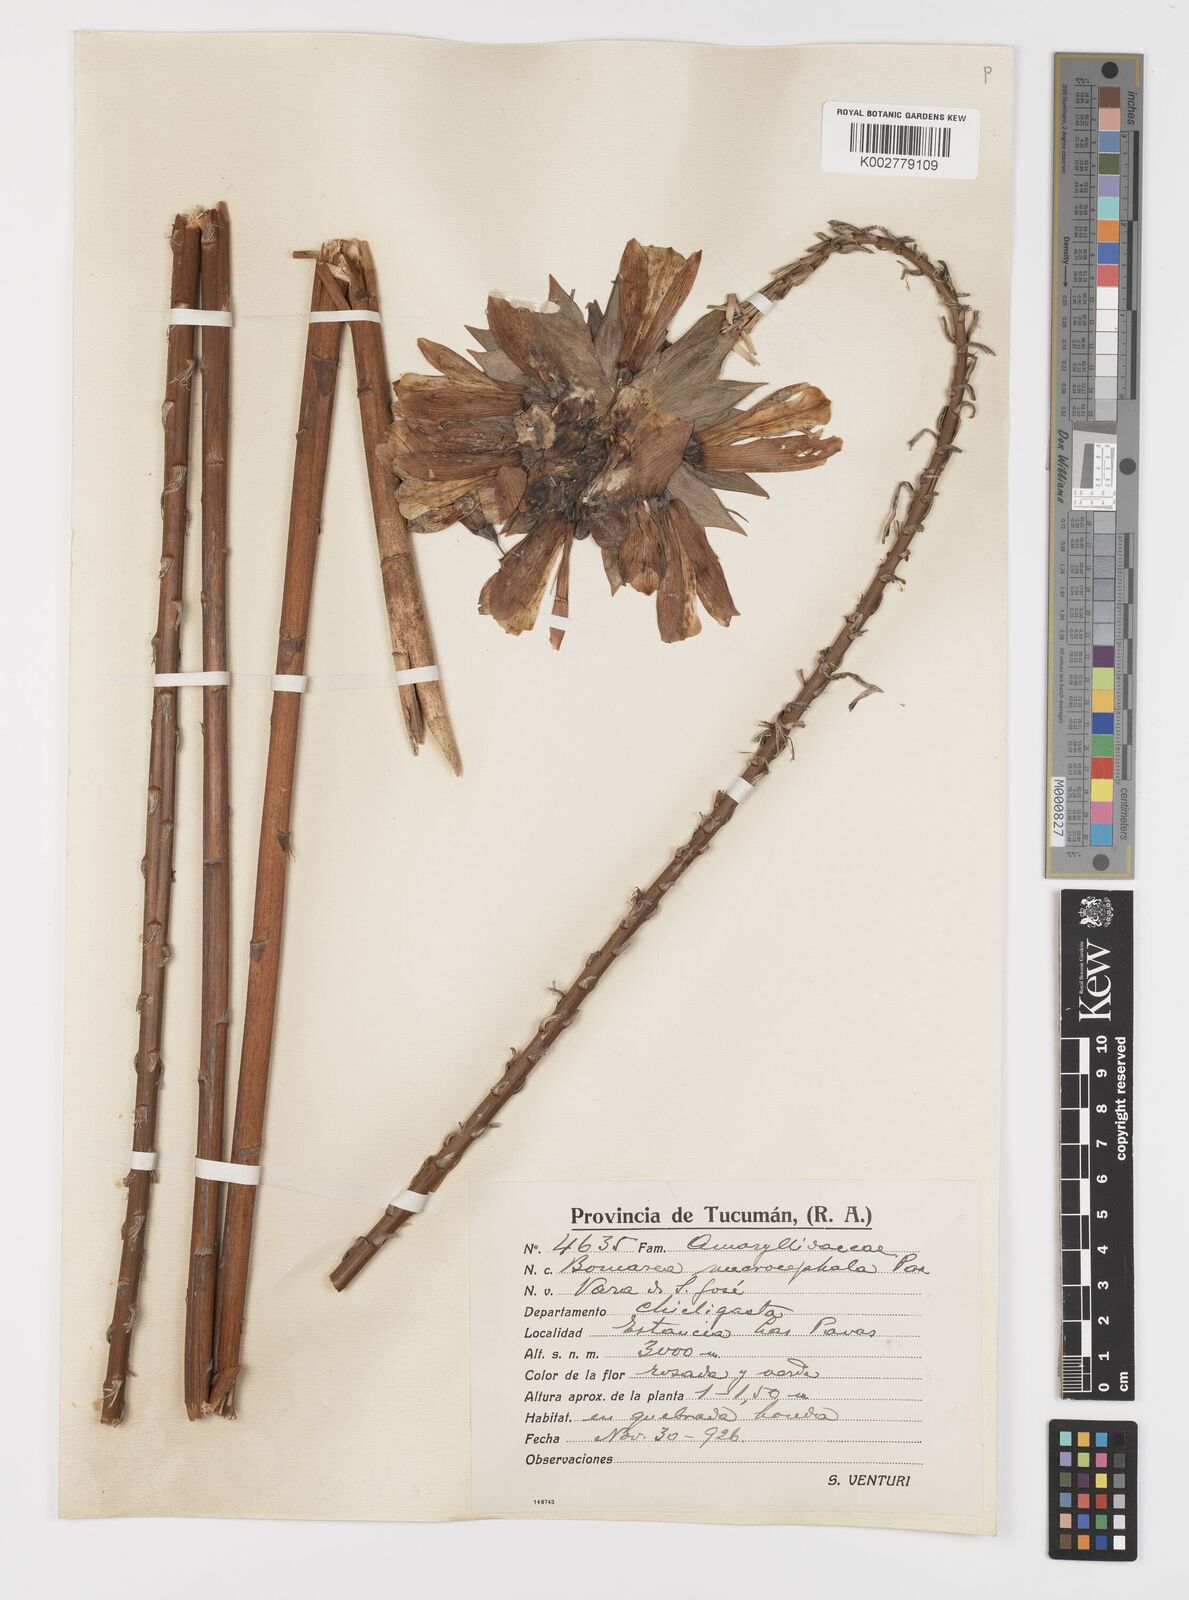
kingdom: Plantae
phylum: Tracheophyta
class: Liliopsida
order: Liliales
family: Alstroemeriaceae
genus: Bomarea
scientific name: Bomarea macrocephala
